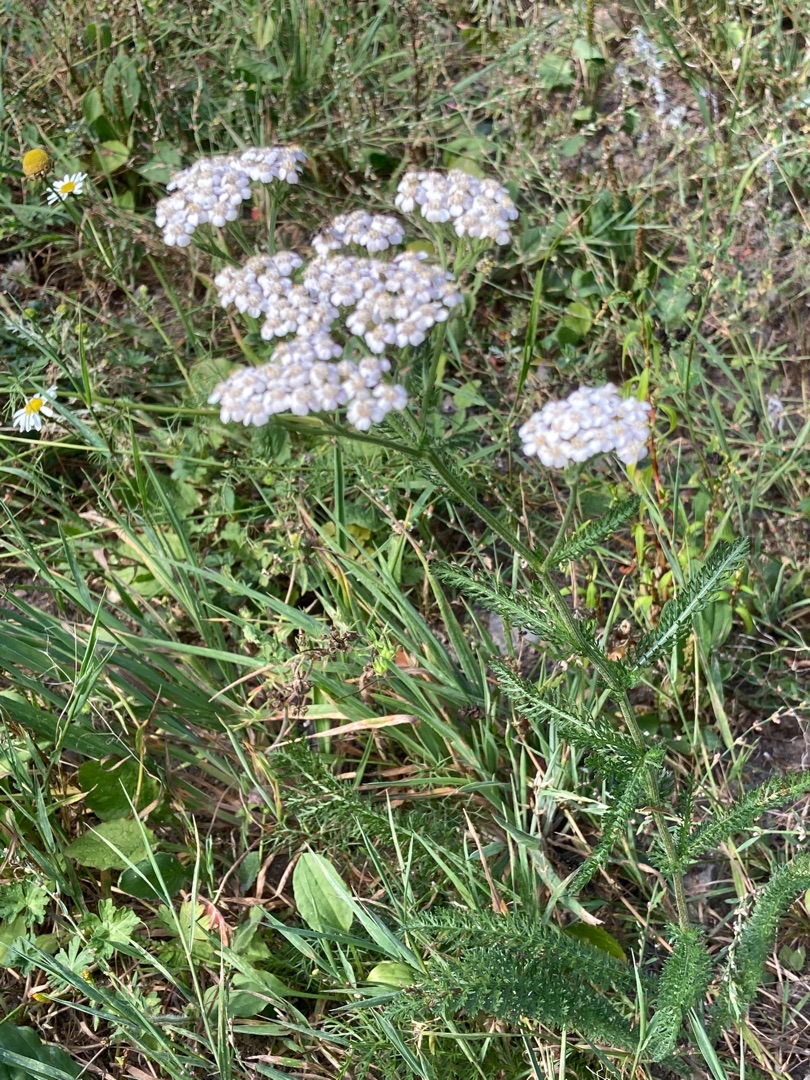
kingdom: Plantae
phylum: Tracheophyta
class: Magnoliopsida
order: Asterales
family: Asteraceae
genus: Achillea
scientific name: Achillea millefolium
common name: Almindelig røllike
